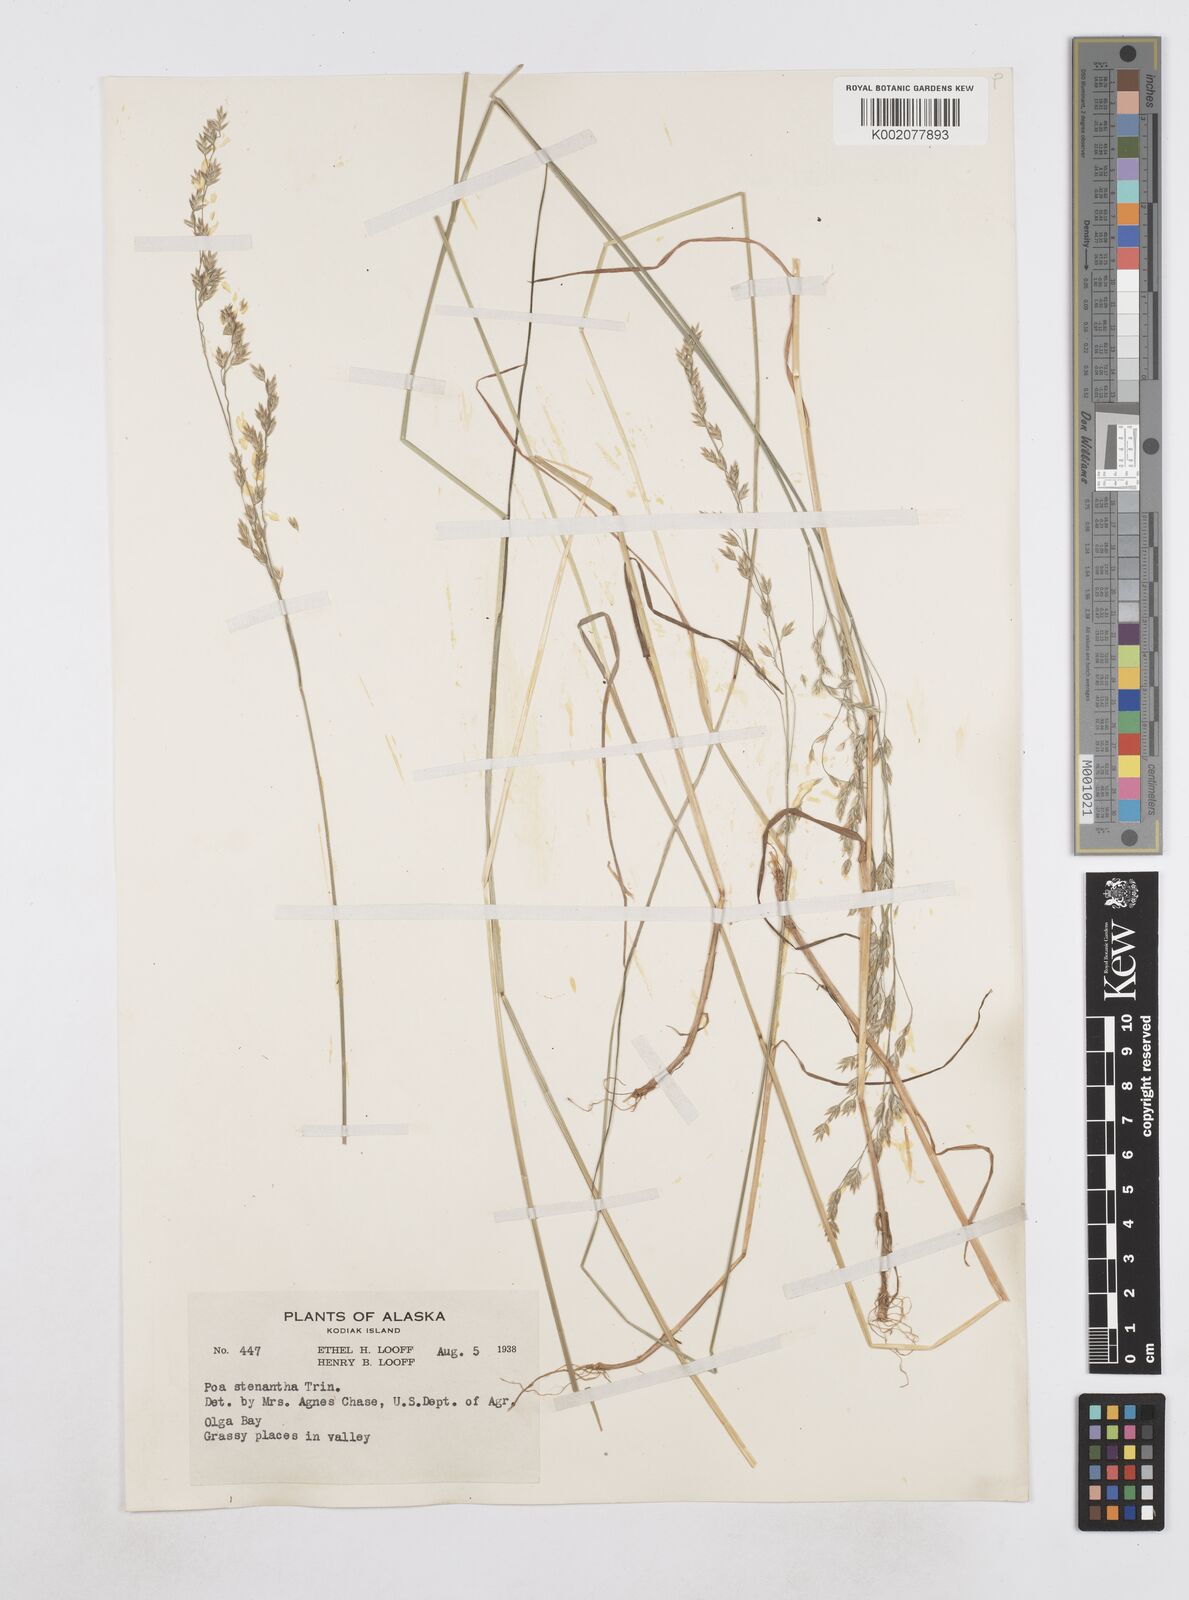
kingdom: Plantae
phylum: Tracheophyta
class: Liliopsida
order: Poales
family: Poaceae
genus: Poa
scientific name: Poa stenantha
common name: Narrow-flowered bluegrass
